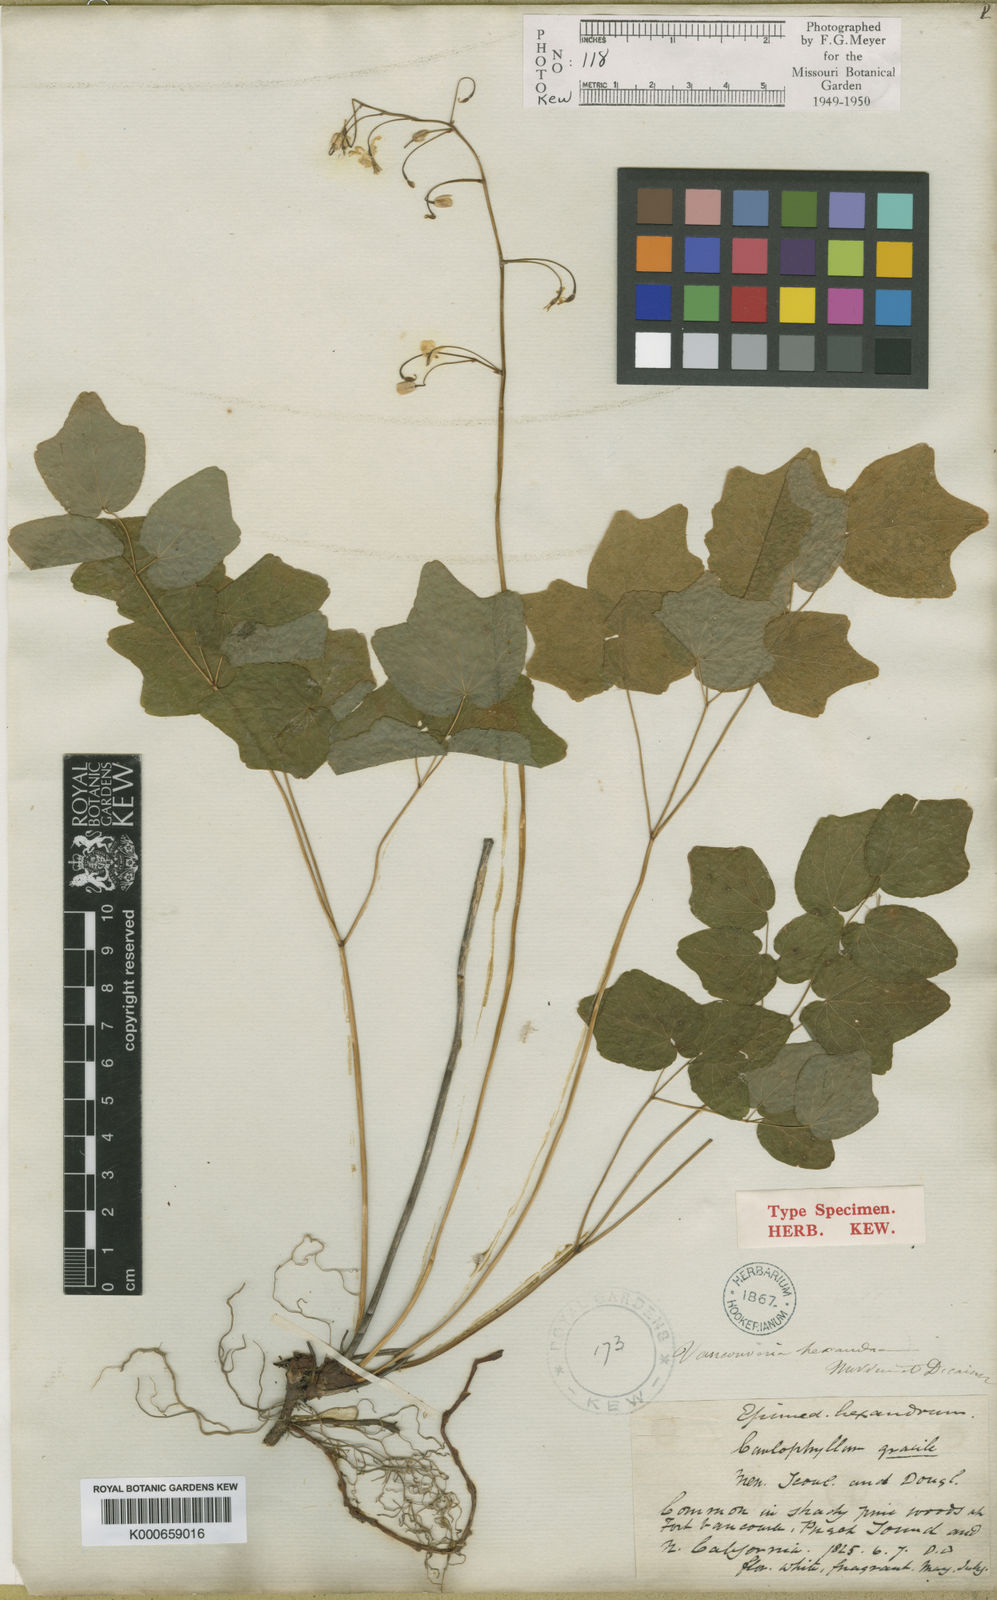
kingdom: Plantae
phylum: Tracheophyta
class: Magnoliopsida
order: Ranunculales
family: Berberidaceae
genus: Vancouveria
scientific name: Vancouveria hexandra
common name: Northern inside-out-flower
